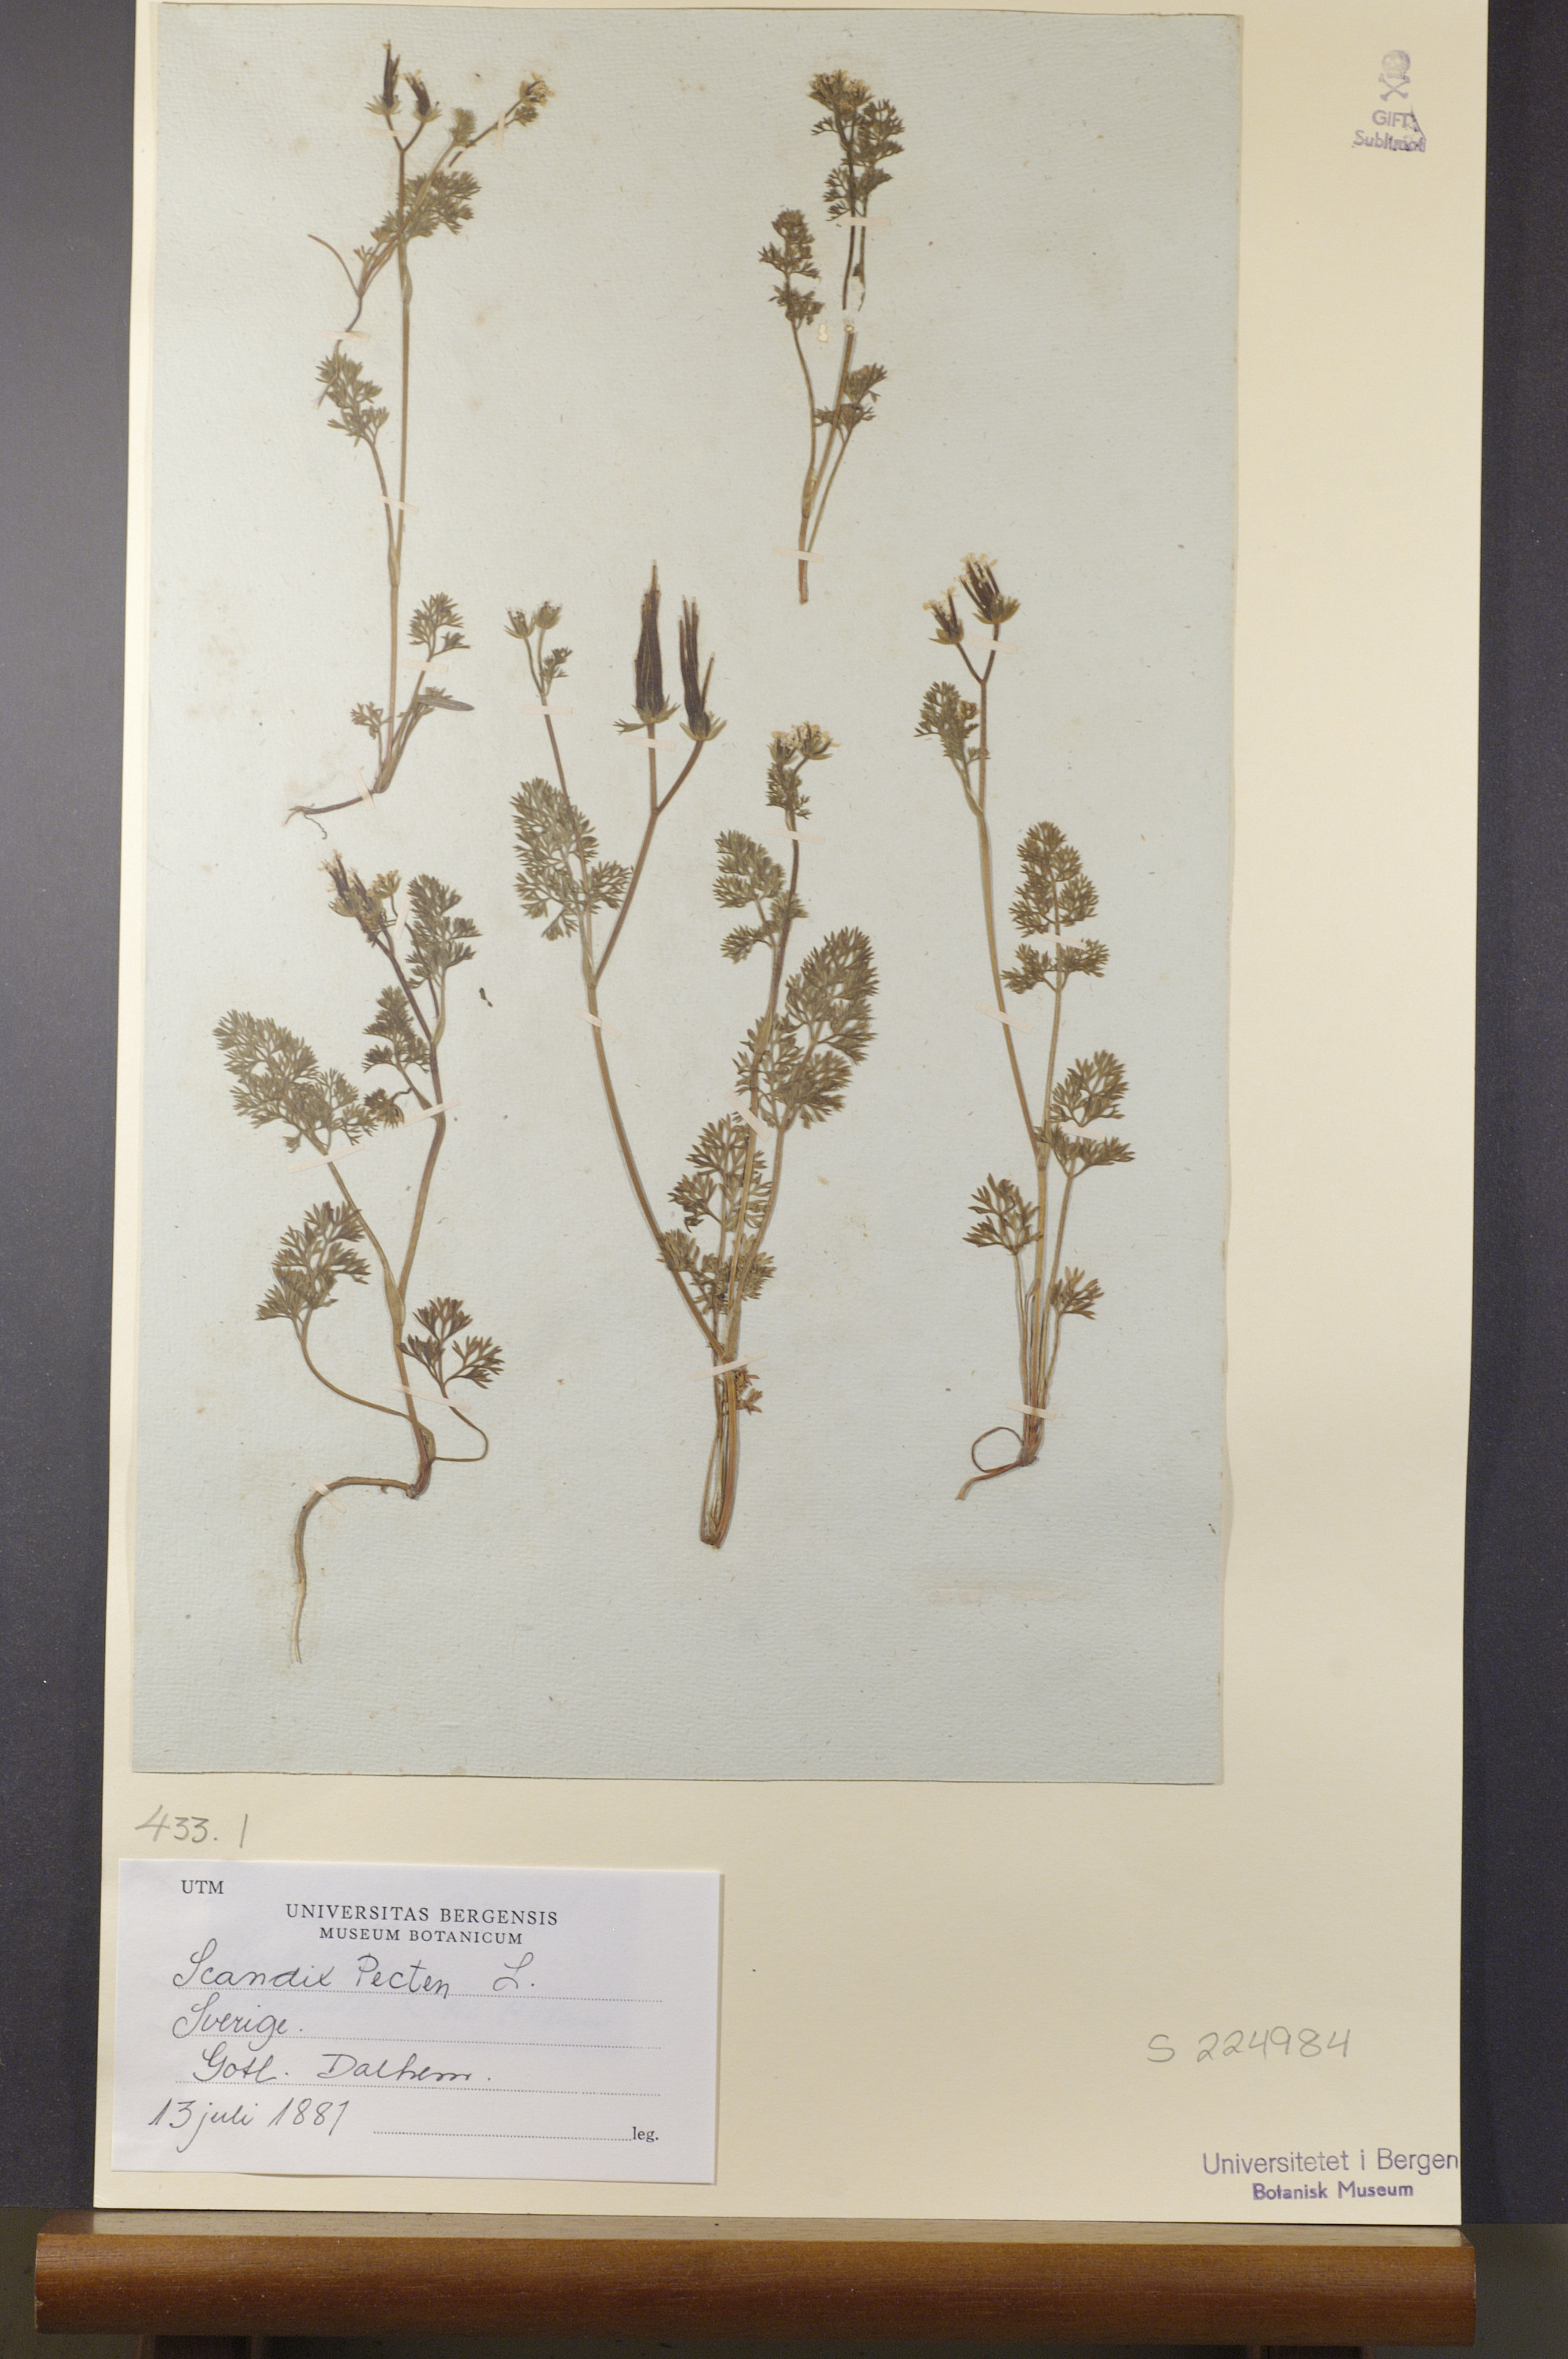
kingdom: Plantae
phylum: Tracheophyta
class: Magnoliopsida
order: Apiales
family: Apiaceae
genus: Scandix
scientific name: Scandix pecten-veneris
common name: Shepherd's-needle
